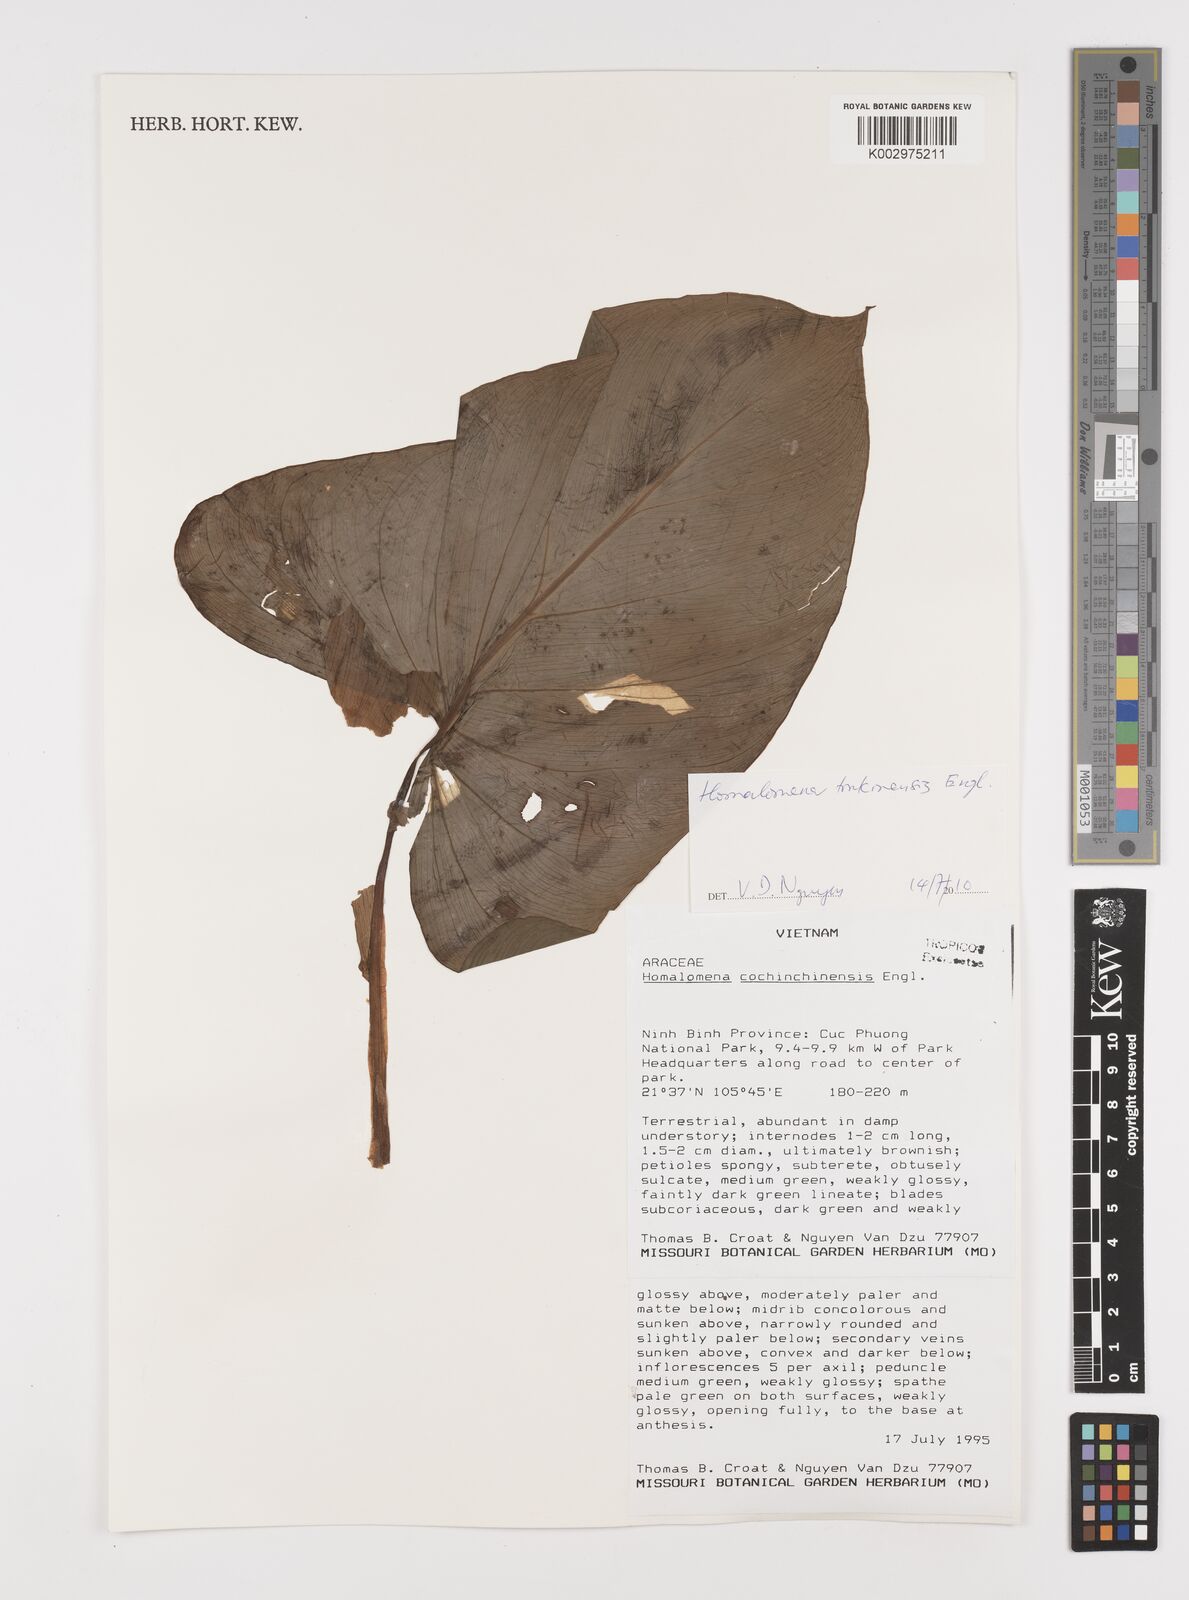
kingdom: Plantae
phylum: Tracheophyta
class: Liliopsida
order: Alismatales
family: Araceae
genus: Homalomena
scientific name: Homalomena cochinchinensis
